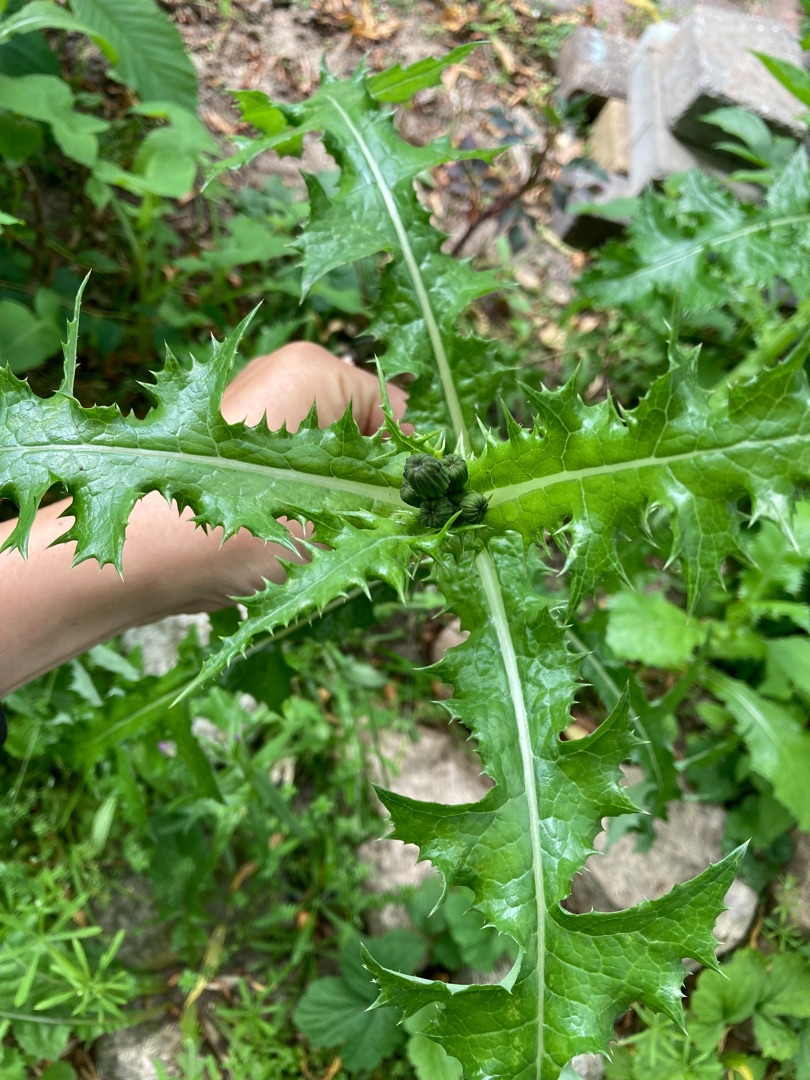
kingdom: Plantae
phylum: Tracheophyta
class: Magnoliopsida
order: Asterales
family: Asteraceae
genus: Sonchus
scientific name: Sonchus asper
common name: Ru svinemælk
